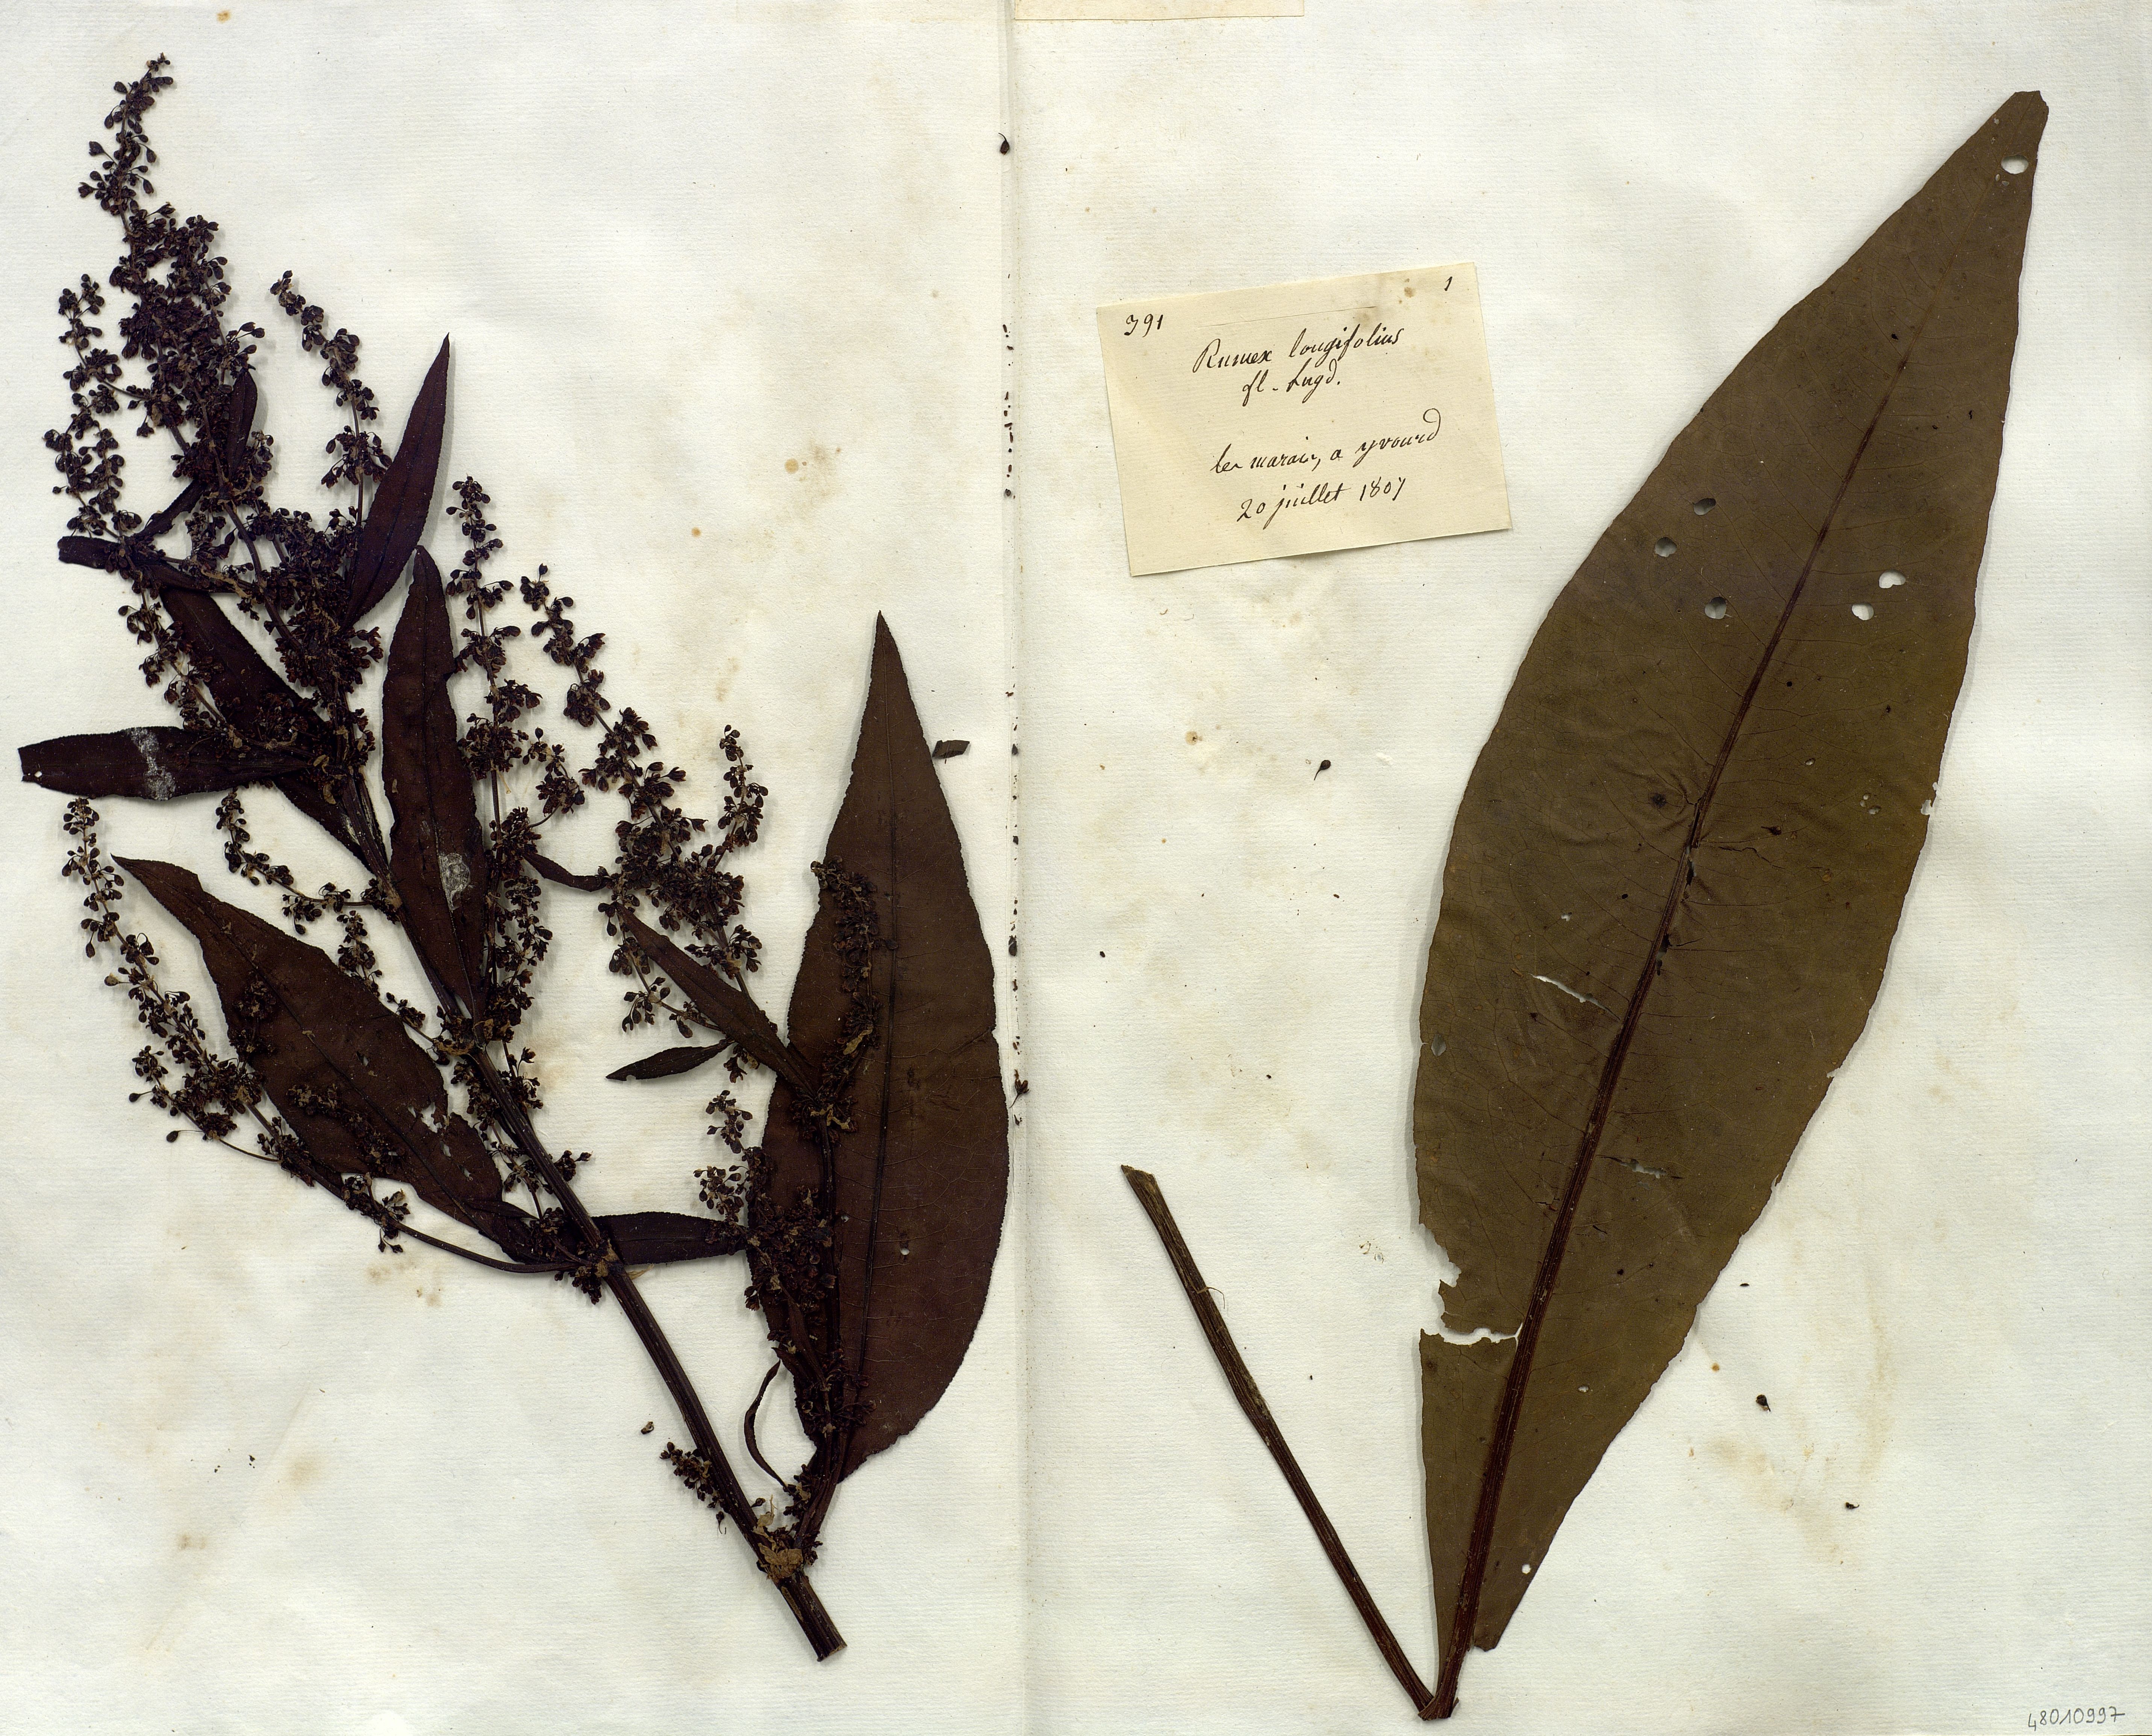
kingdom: Plantae
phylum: Tracheophyta
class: Magnoliopsida
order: Caryophyllales
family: Polygonaceae
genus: Rumex
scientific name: Rumex longifolius
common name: Dooryard dock
